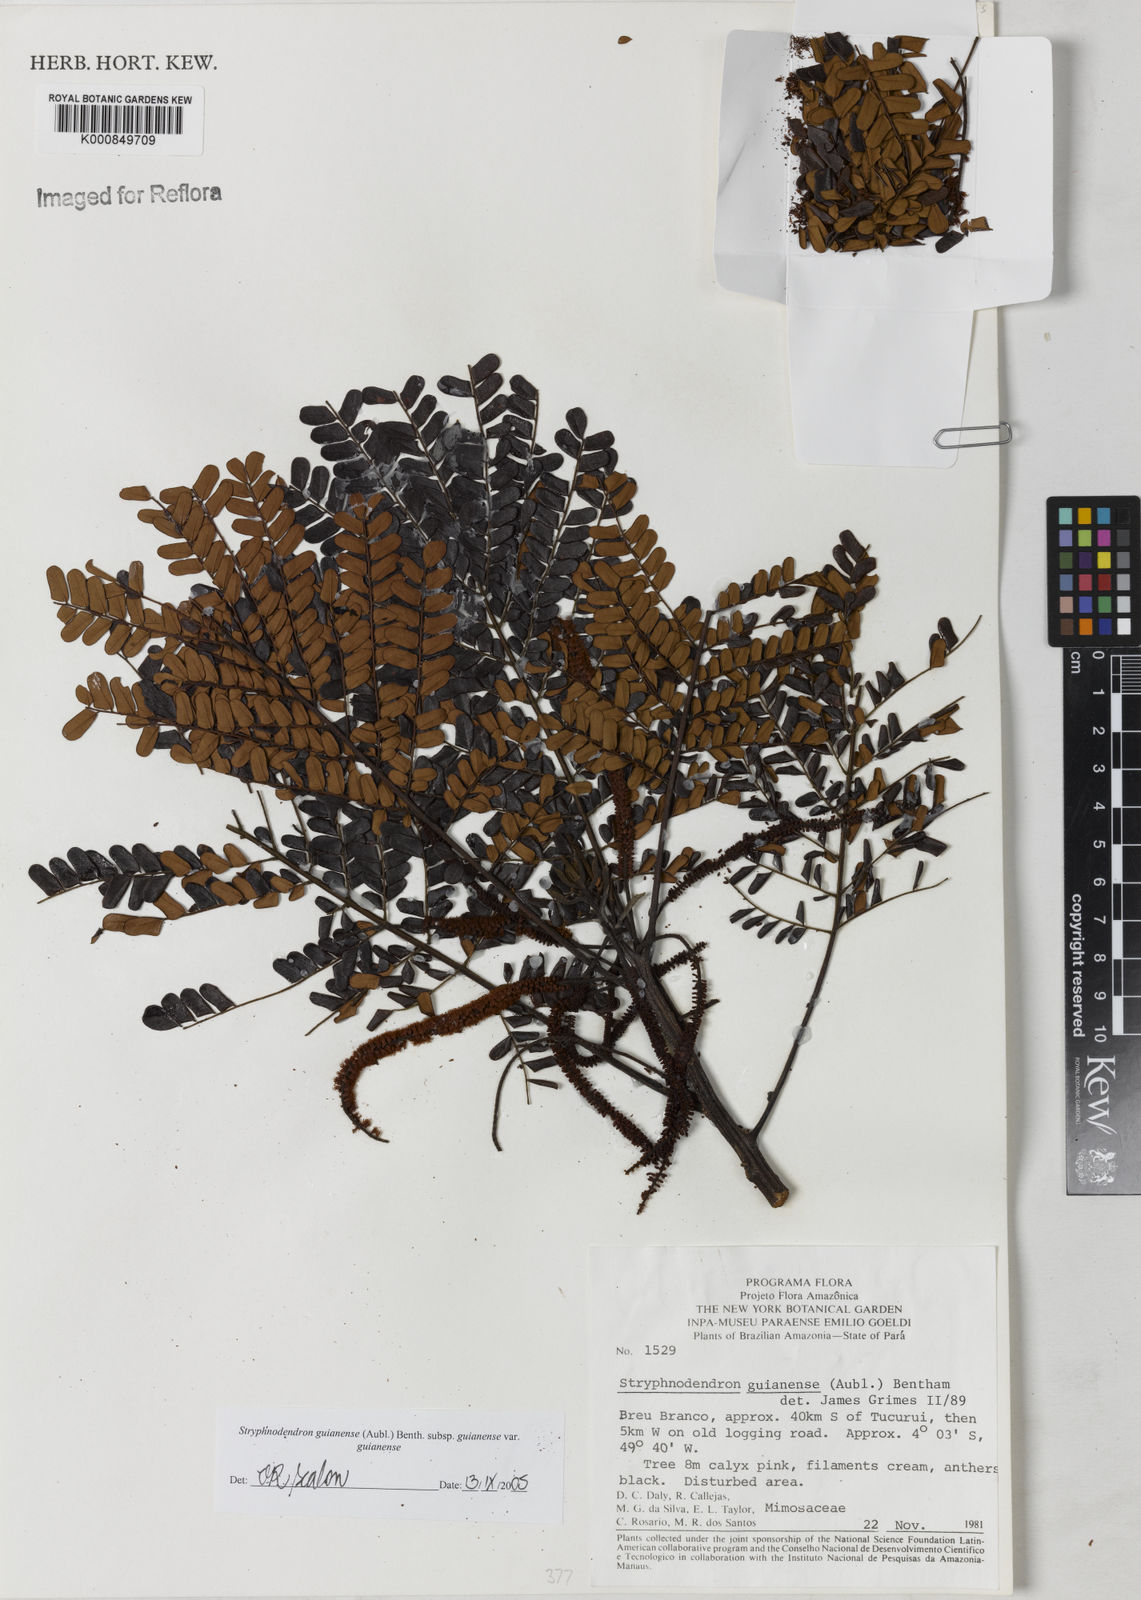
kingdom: Plantae
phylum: Tracheophyta
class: Magnoliopsida
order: Fabales
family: Fabaceae
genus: Stryphnodendron
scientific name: Stryphnodendron guianense
